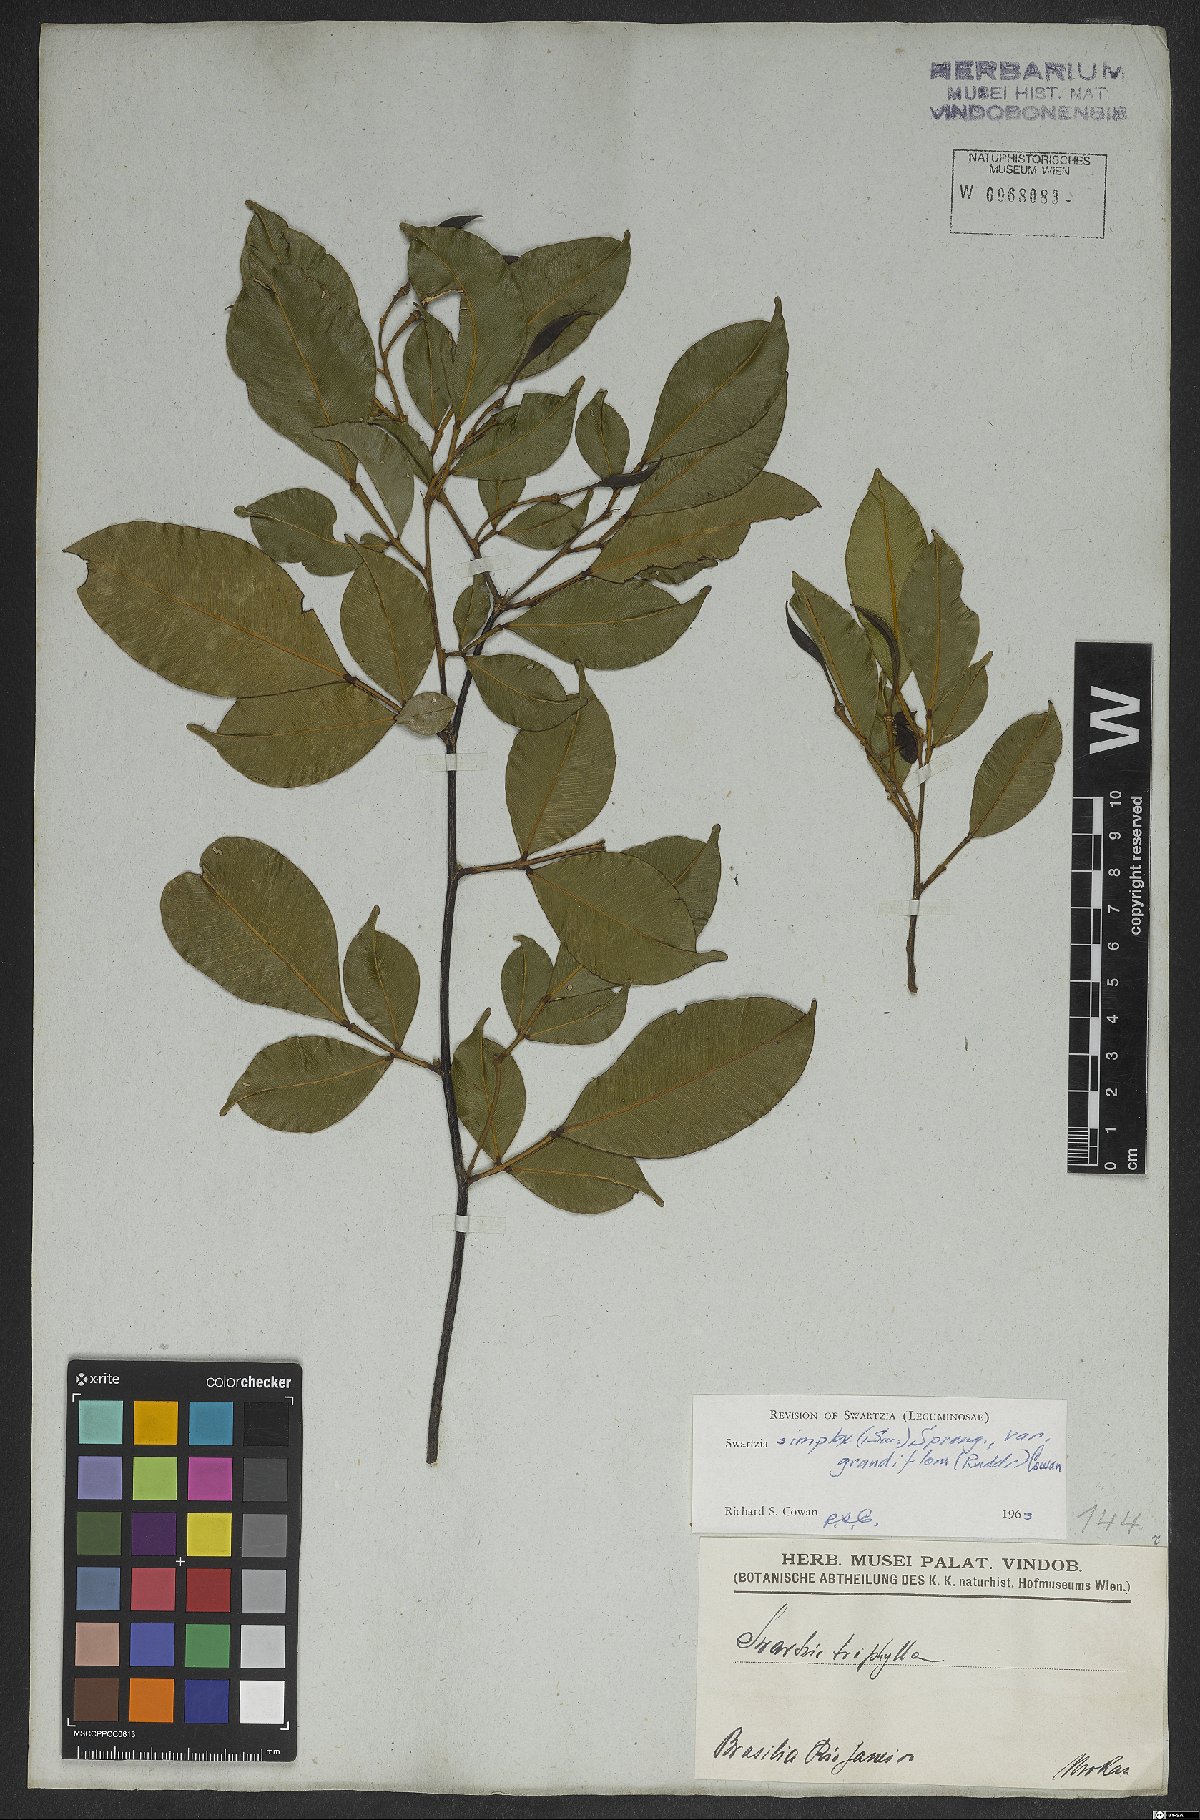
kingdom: Plantae
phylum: Tracheophyta
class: Magnoliopsida
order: Fabales
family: Fabaceae
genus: Swartzia
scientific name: Swartzia simplex
